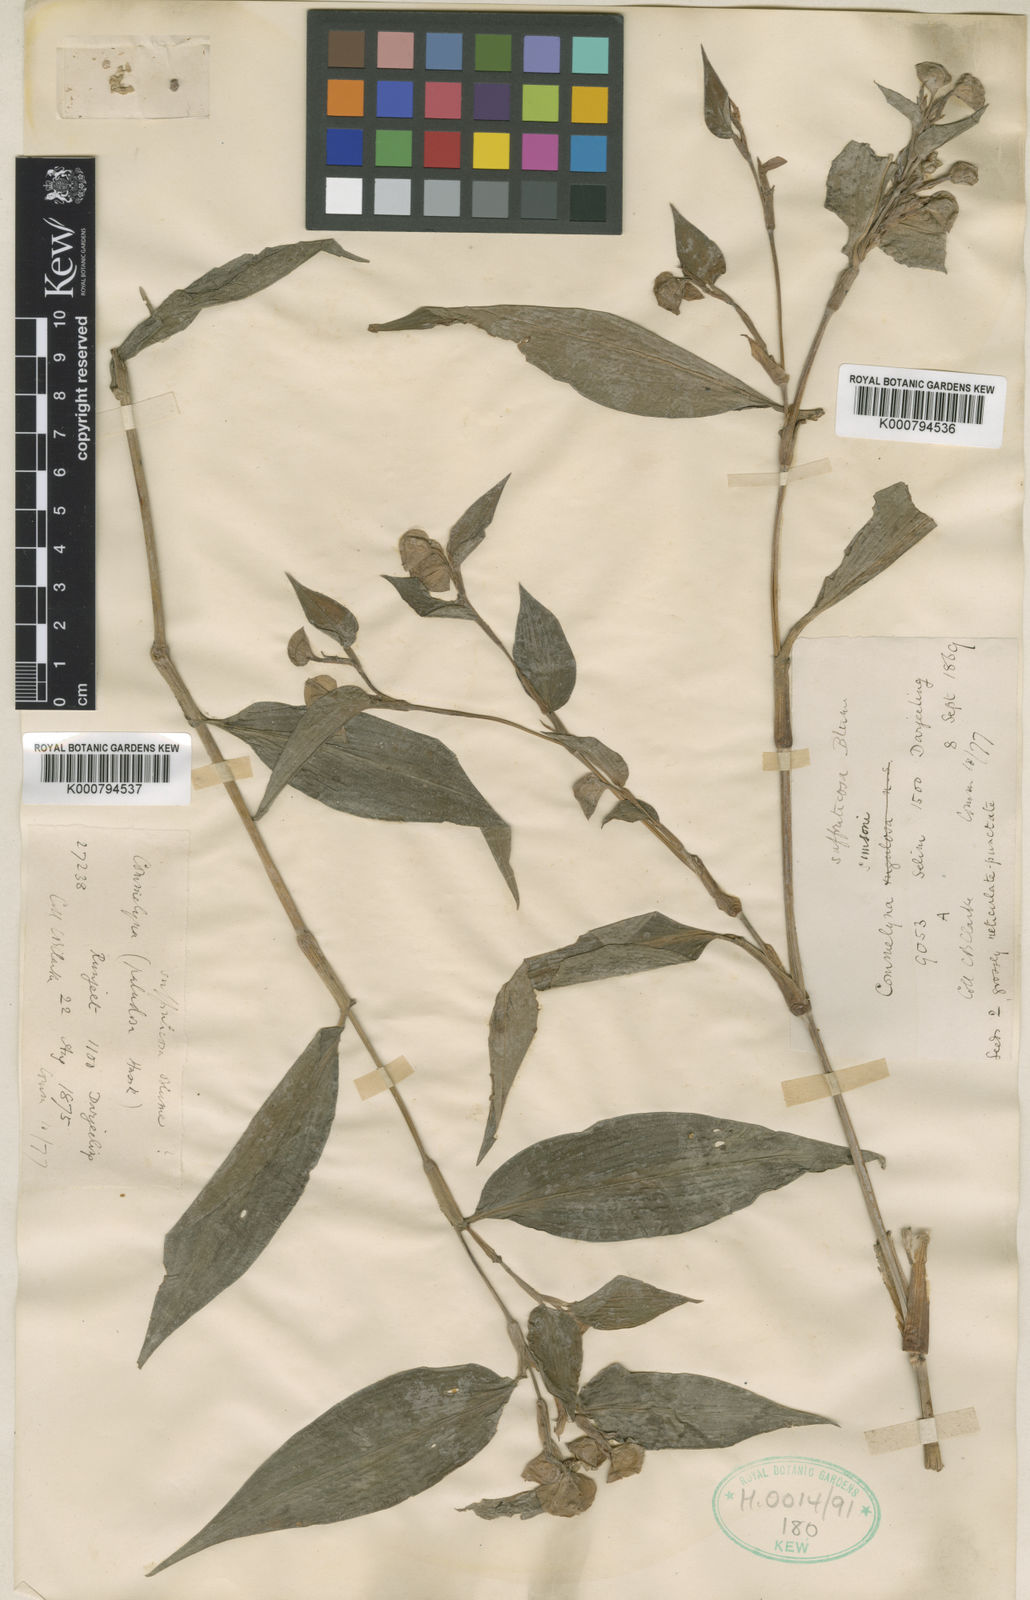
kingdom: Plantae
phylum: Tracheophyta
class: Liliopsida
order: Commelinales
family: Commelinaceae
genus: Commelina
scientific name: Commelina suffruticosa
